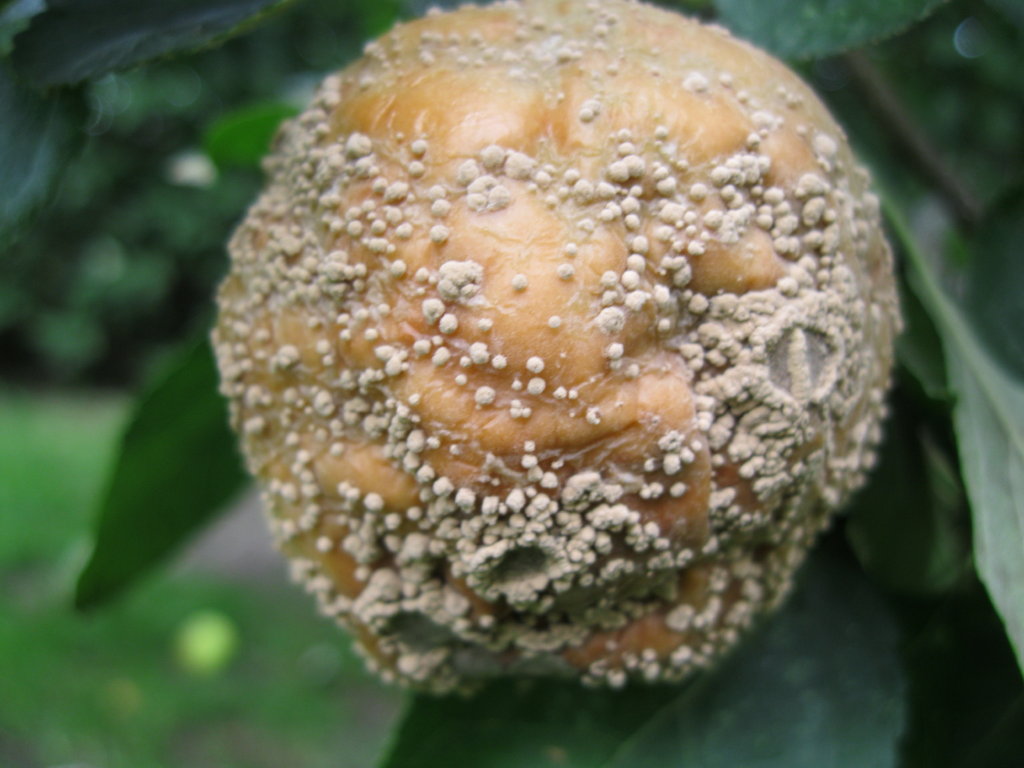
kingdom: Fungi
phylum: Ascomycota
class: Leotiomycetes
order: Helotiales
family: Sclerotiniaceae
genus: Monilinia
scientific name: Monilinia fructigena
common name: æble-knoldskive
